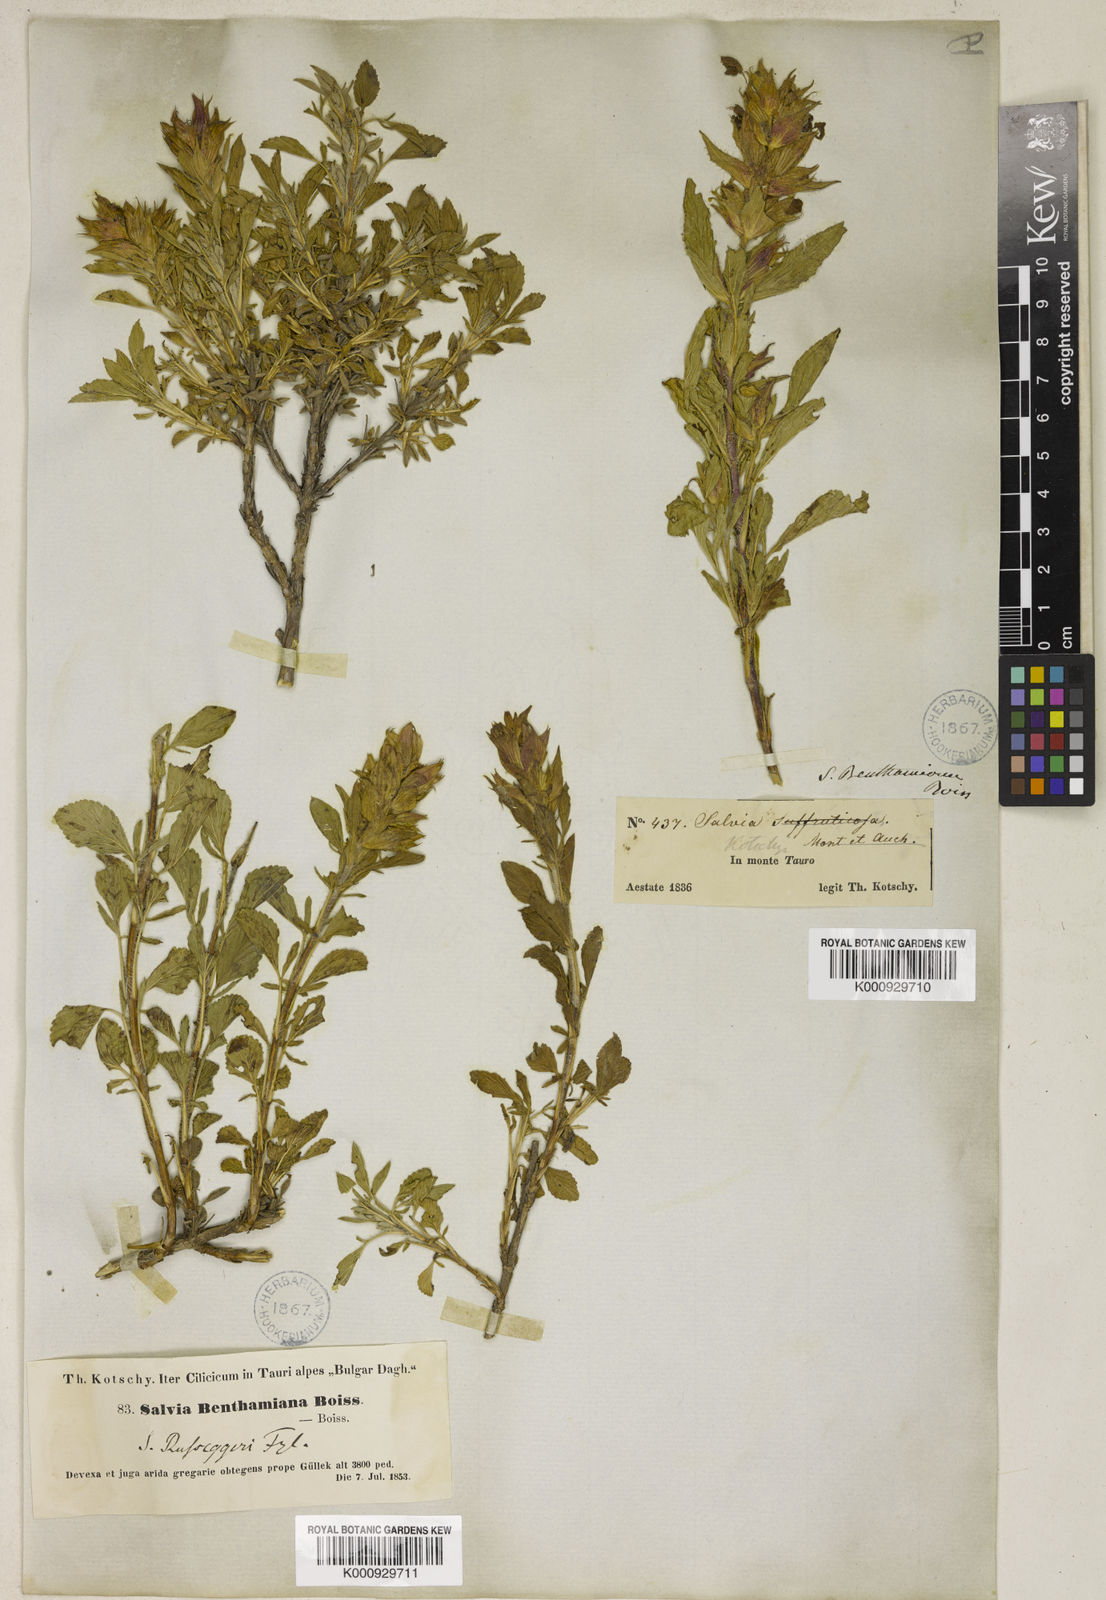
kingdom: Plantae
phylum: Tracheophyta
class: Magnoliopsida
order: Lamiales
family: Lamiaceae
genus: Salvia
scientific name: Salvia heldreichiana
